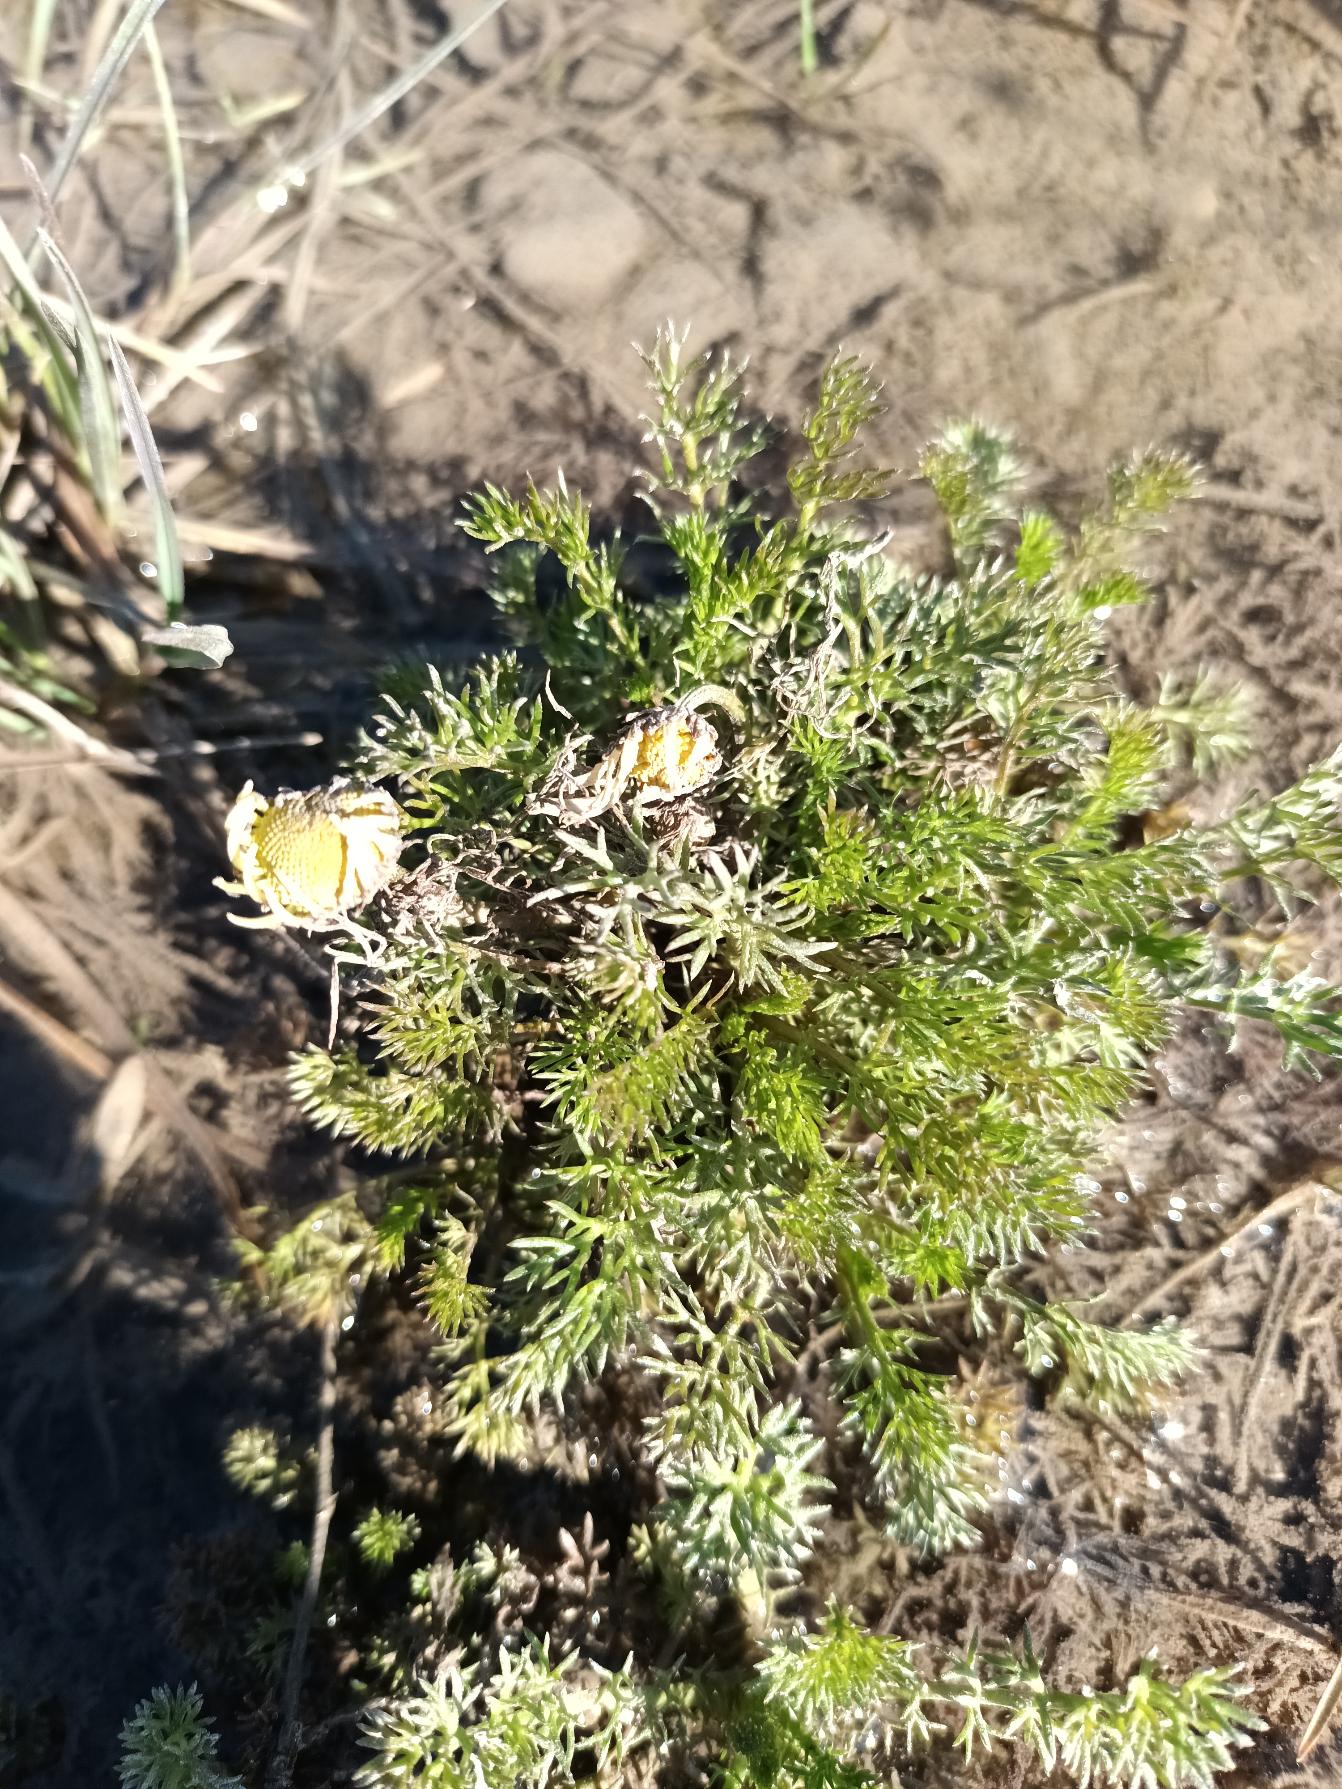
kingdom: Plantae
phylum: Tracheophyta
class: Magnoliopsida
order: Asterales
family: Asteraceae
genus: Tripleurospermum
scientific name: Tripleurospermum inodorum
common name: Lugtløs kamille
